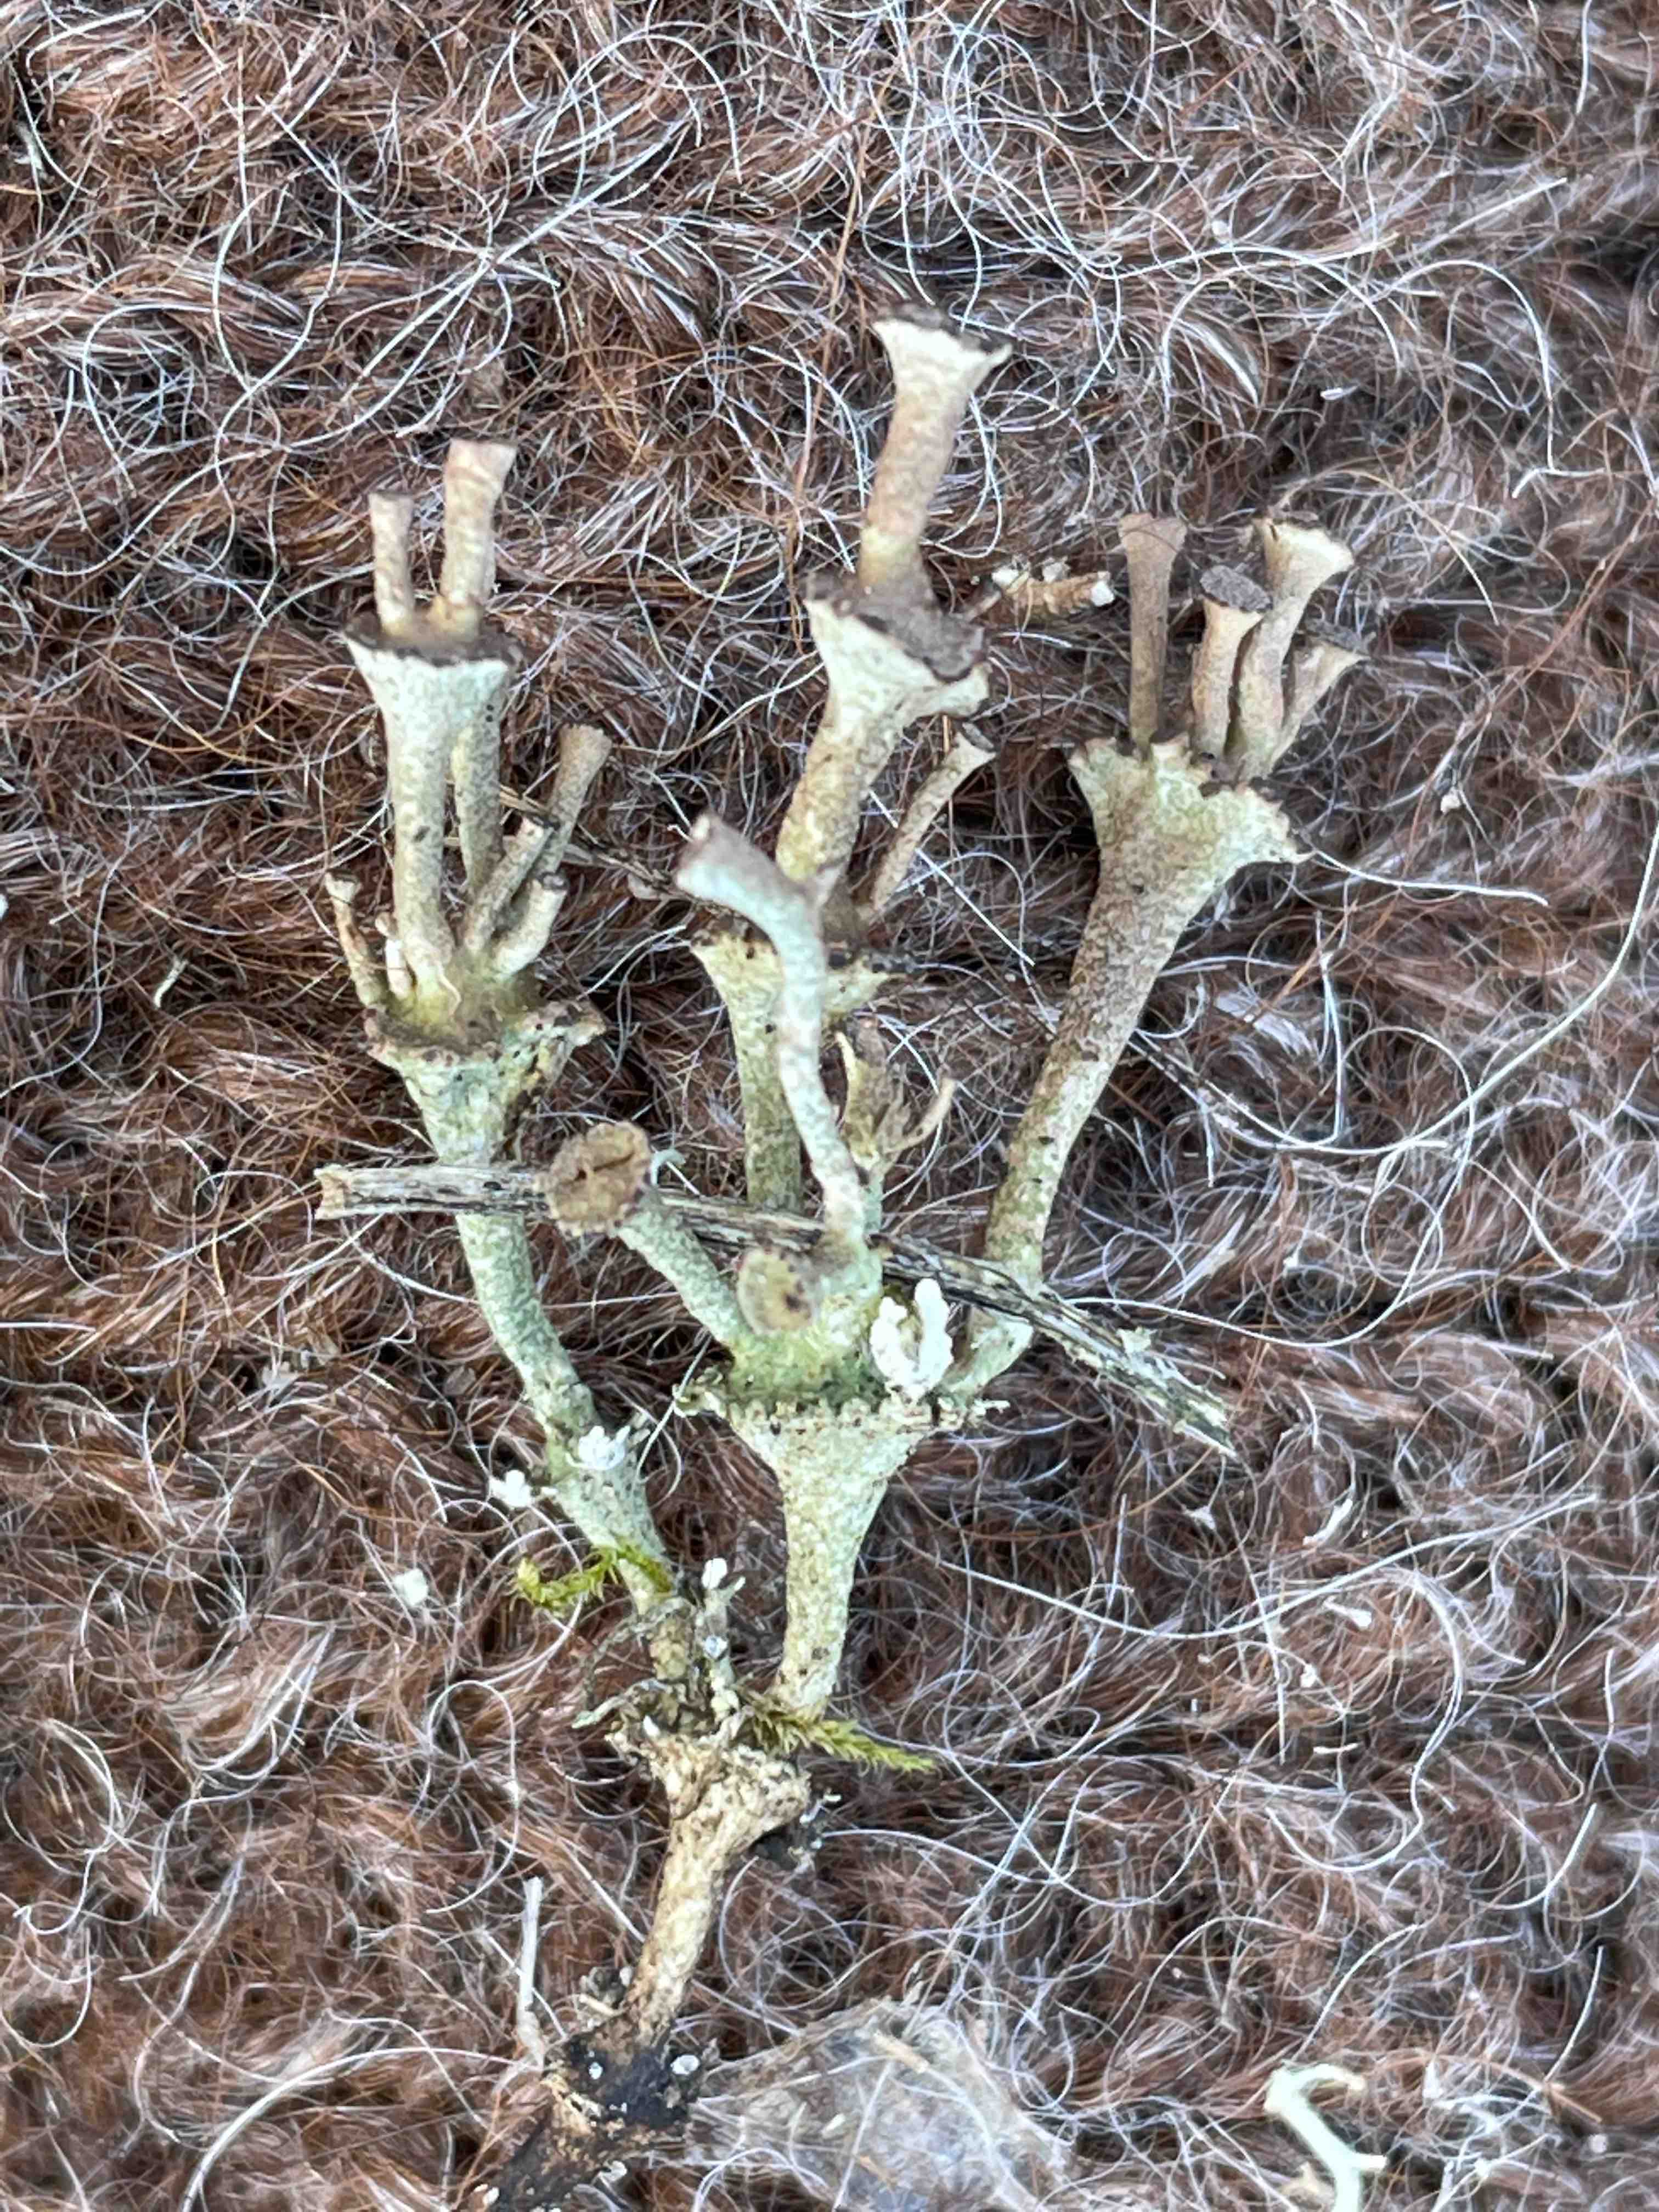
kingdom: Fungi
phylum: Ascomycota
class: Lecanoromycetes
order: Lecanorales
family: Cladoniaceae
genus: Cladonia
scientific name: Cladonia cervicornis
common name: etage-bægerlav
